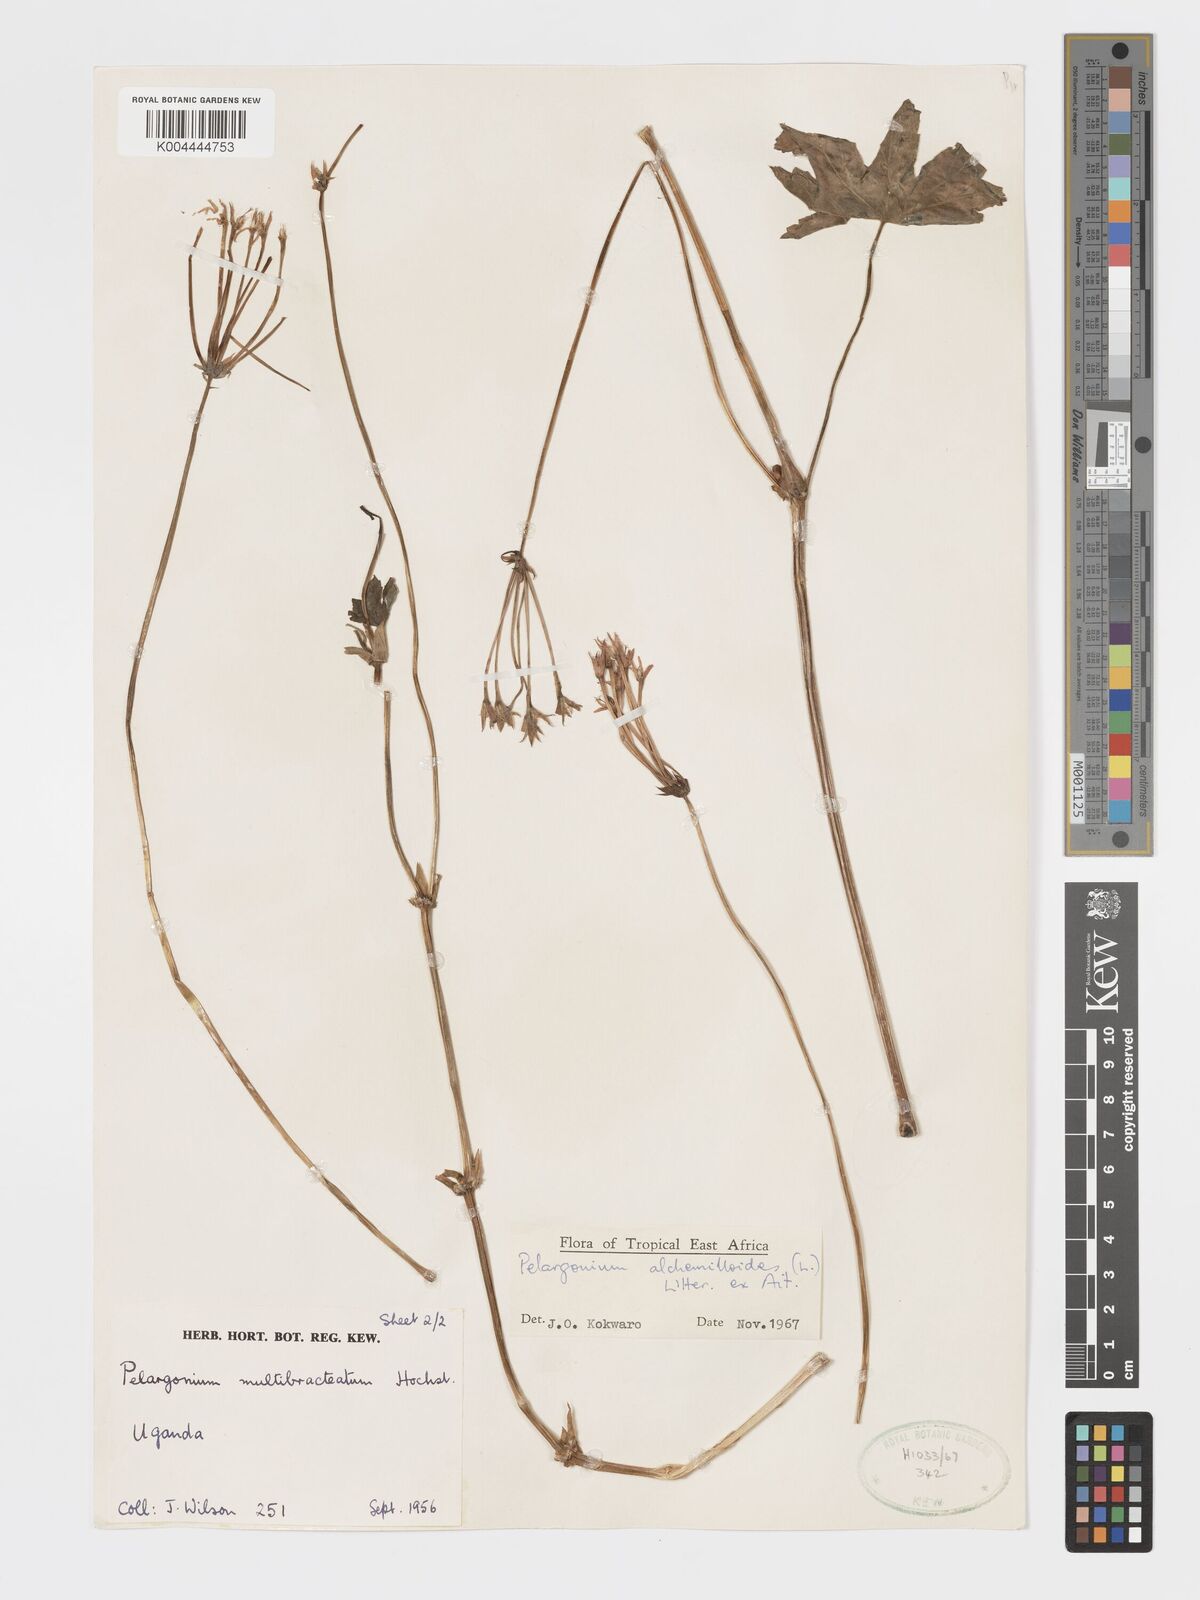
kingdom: Plantae
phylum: Tracheophyta
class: Magnoliopsida
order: Geraniales
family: Geraniaceae
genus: Pelargonium
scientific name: Pelargonium alchemilloides
